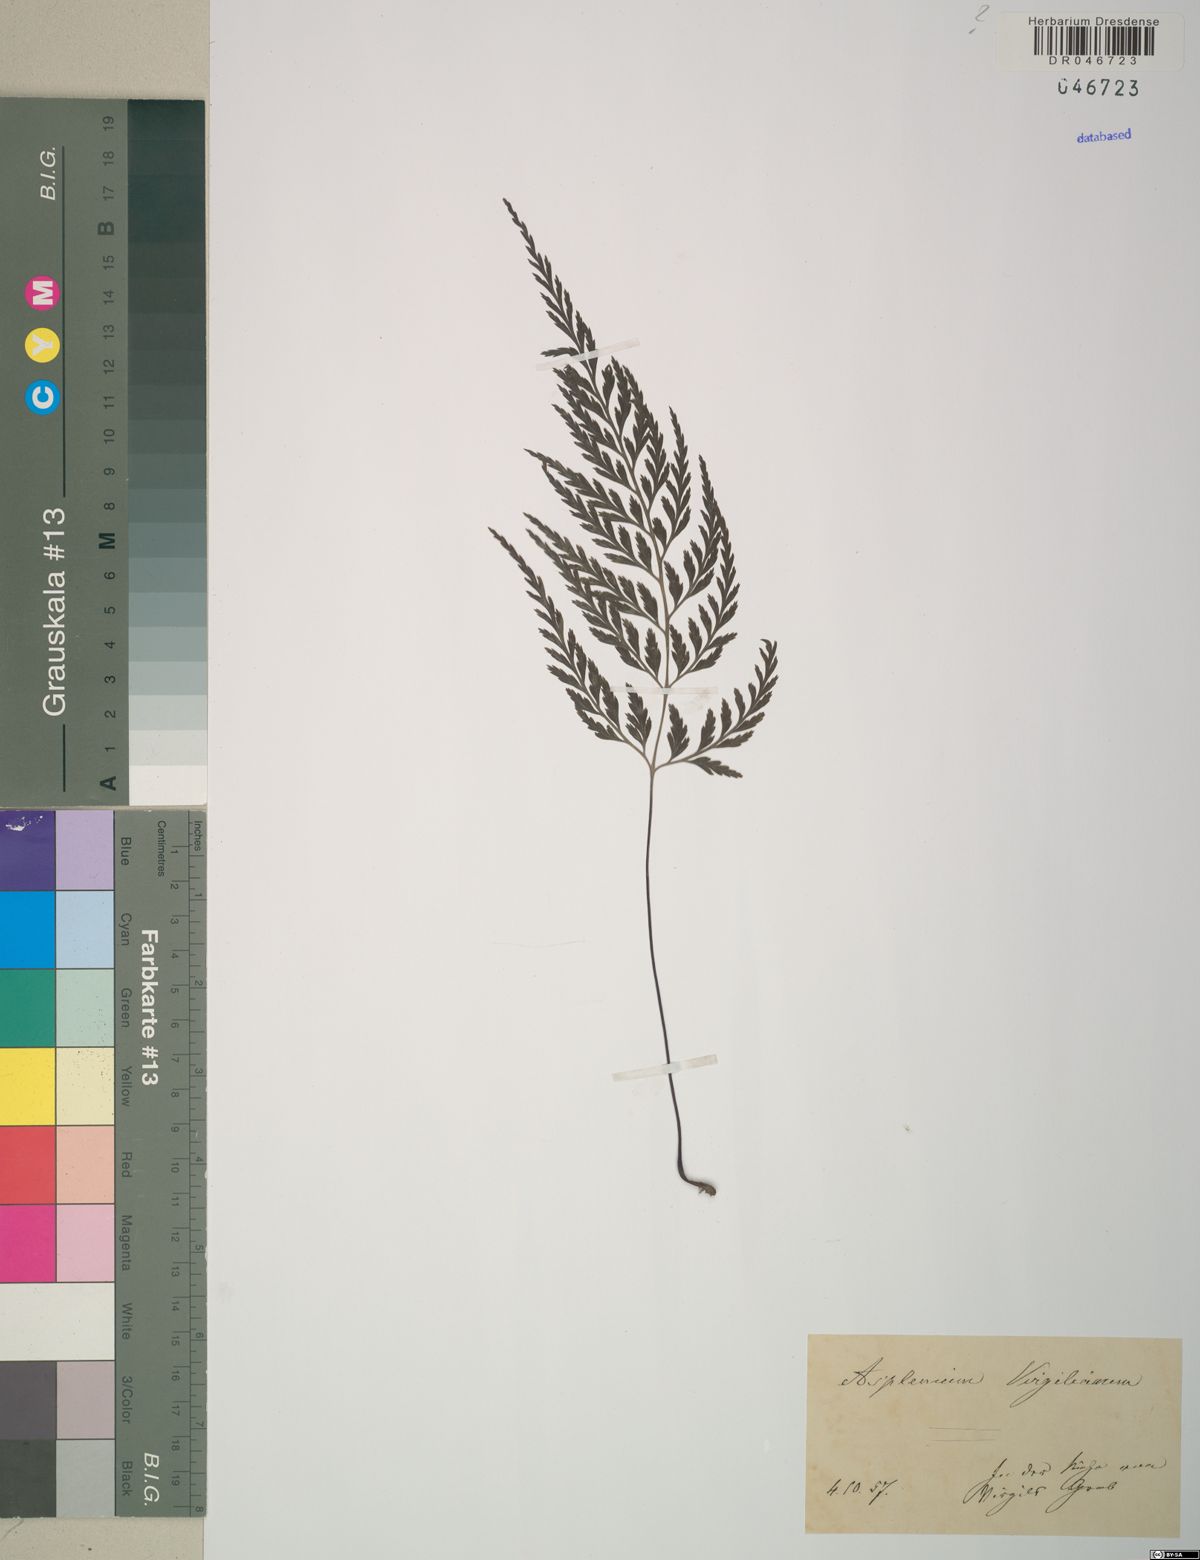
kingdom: Plantae
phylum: Tracheophyta
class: Polypodiopsida
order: Polypodiales
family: Aspleniaceae
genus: Asplenium
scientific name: Asplenium
